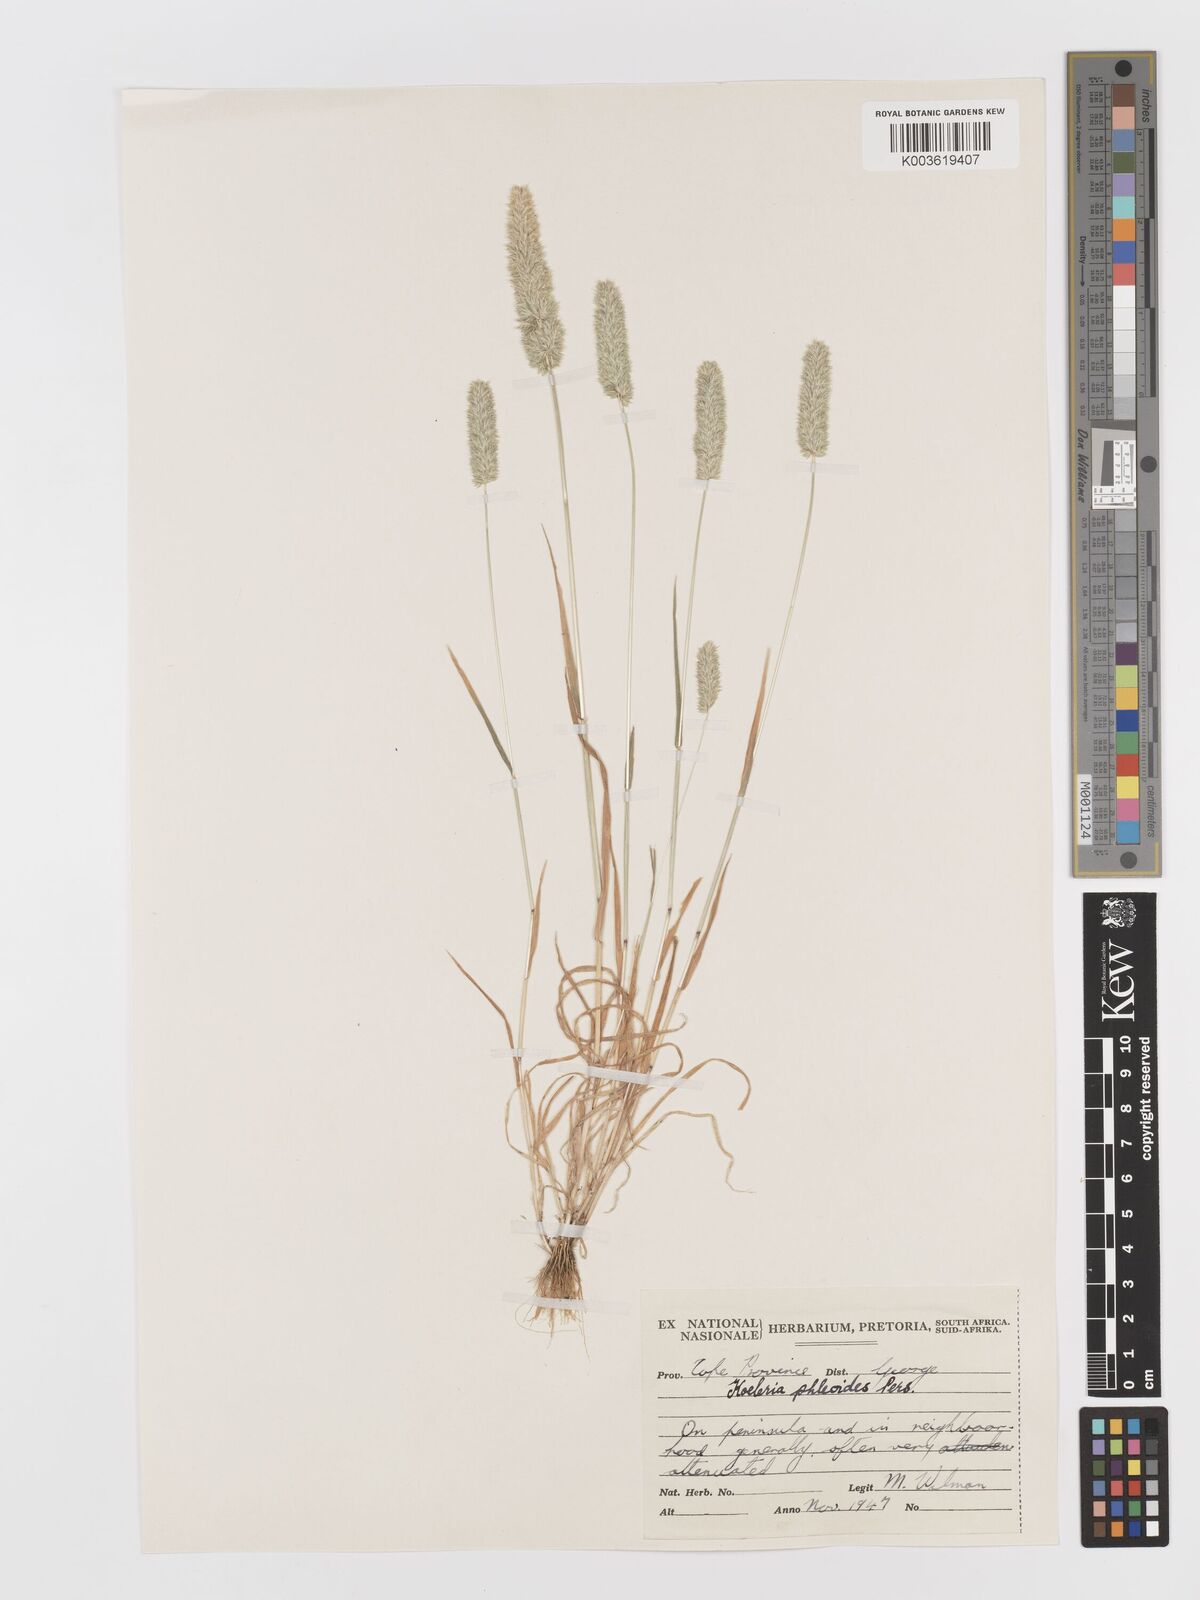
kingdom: Plantae
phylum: Tracheophyta
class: Liliopsida
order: Poales
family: Poaceae
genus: Rostraria
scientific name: Rostraria cristata
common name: Mediterranean hair-grass
